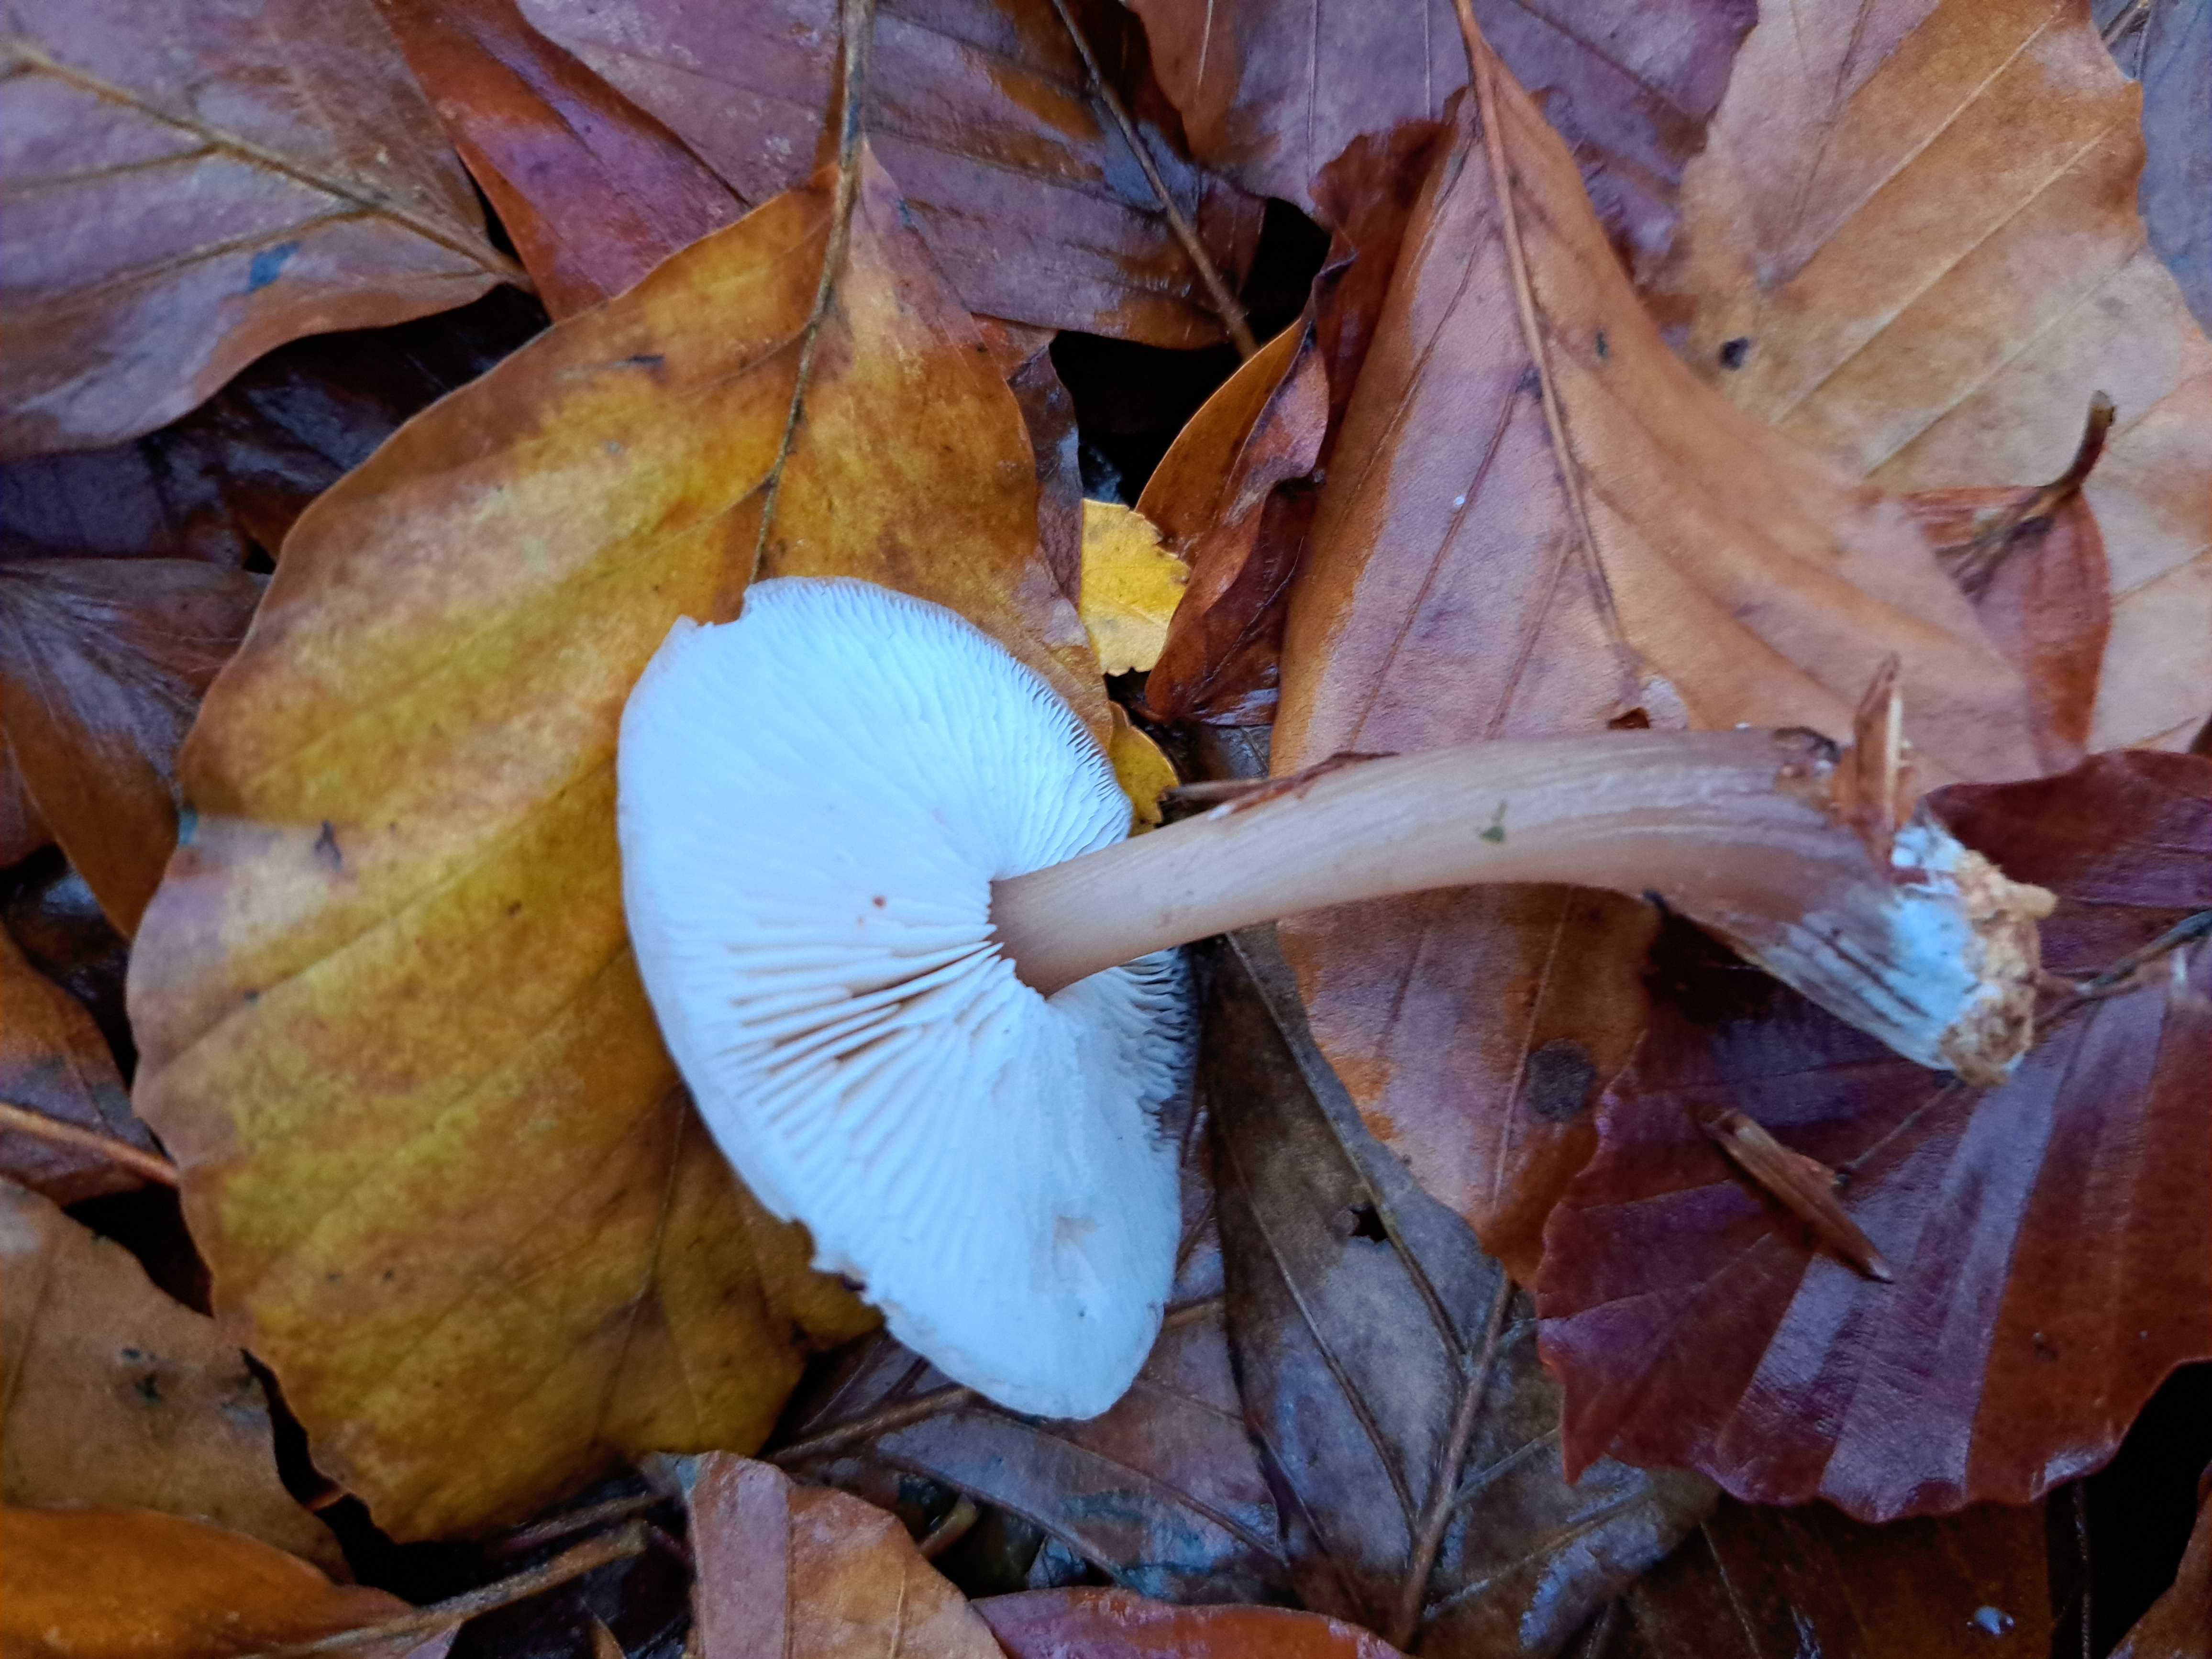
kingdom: Fungi
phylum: Basidiomycota
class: Agaricomycetes
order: Agaricales
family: Omphalotaceae
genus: Rhodocollybia
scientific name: Rhodocollybia asema
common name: horngrå fladhat
